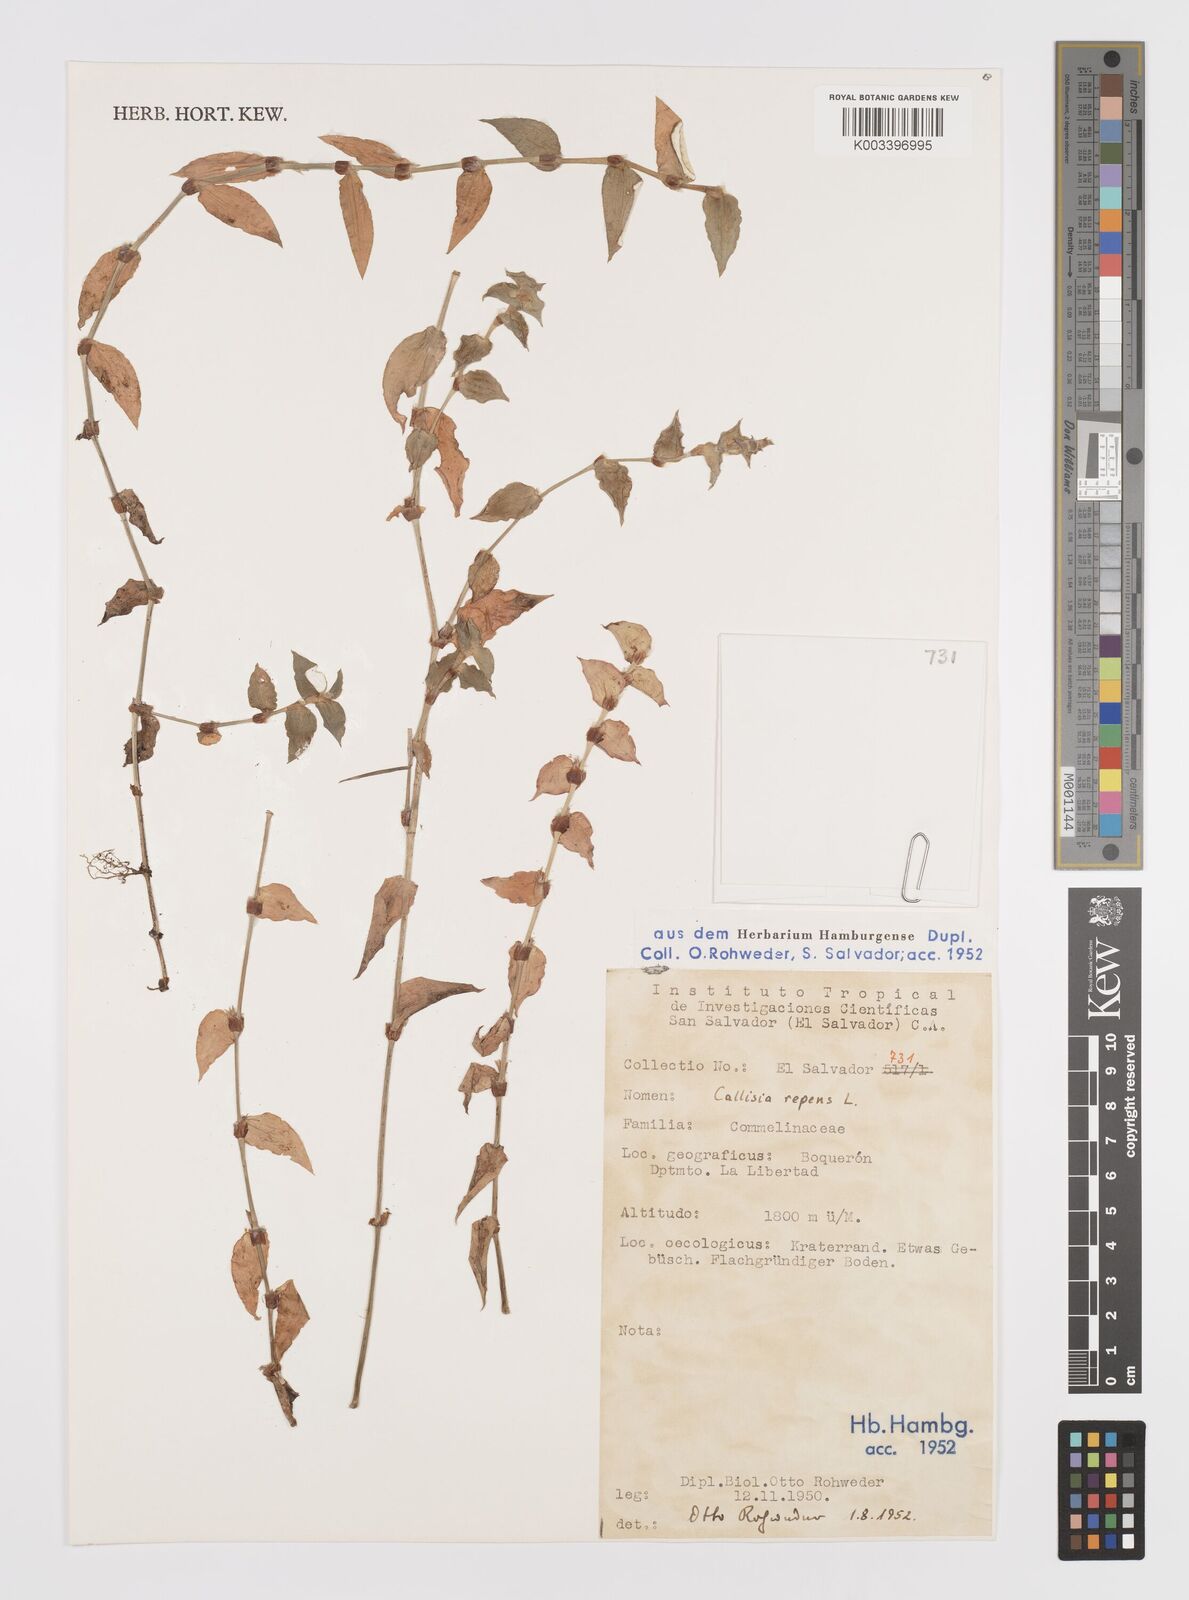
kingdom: Plantae
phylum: Tracheophyta
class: Liliopsida
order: Commelinales
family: Commelinaceae
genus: Callisia
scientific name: Callisia repens
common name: Creeping inchplant
